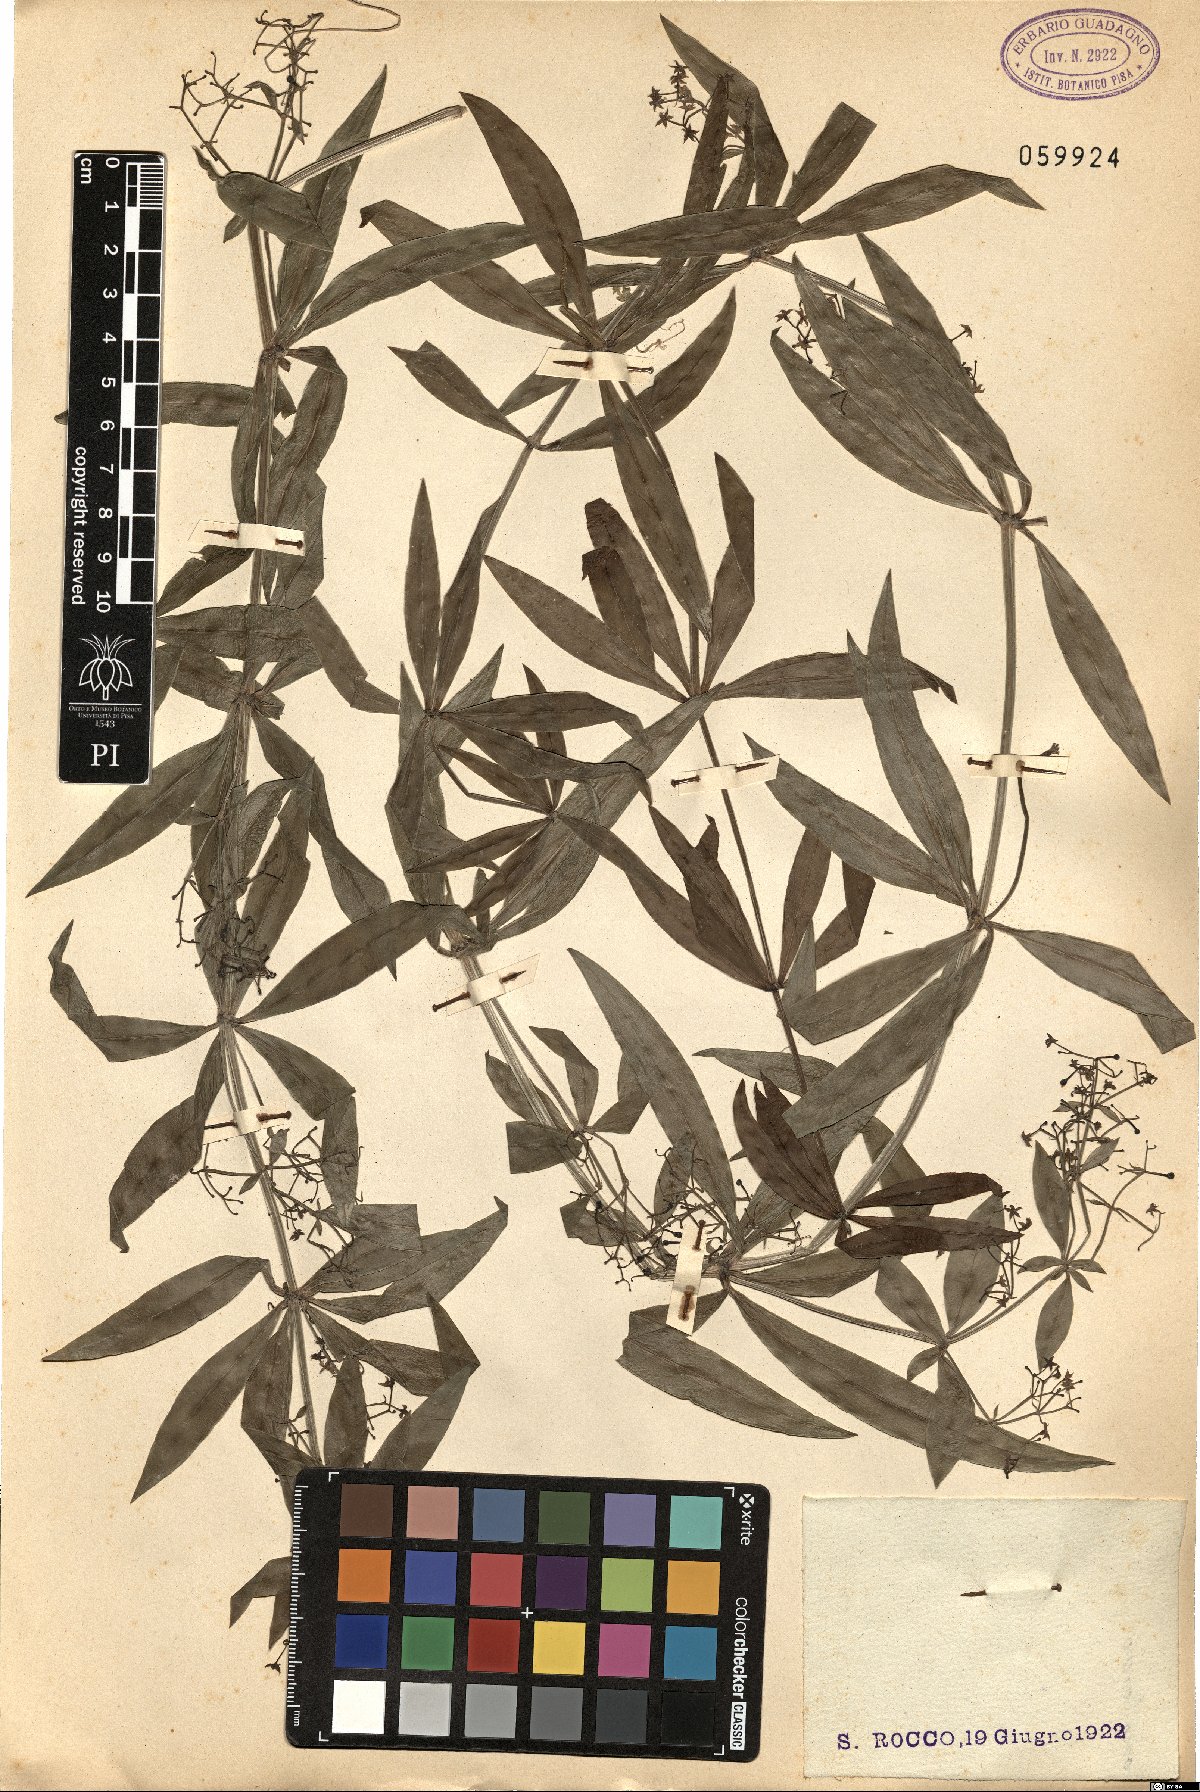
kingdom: Plantae
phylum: Tracheophyta
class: Magnoliopsida
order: Gentianales
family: Rubiaceae
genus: Rubia
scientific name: Rubia peregrina
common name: Wild madder
